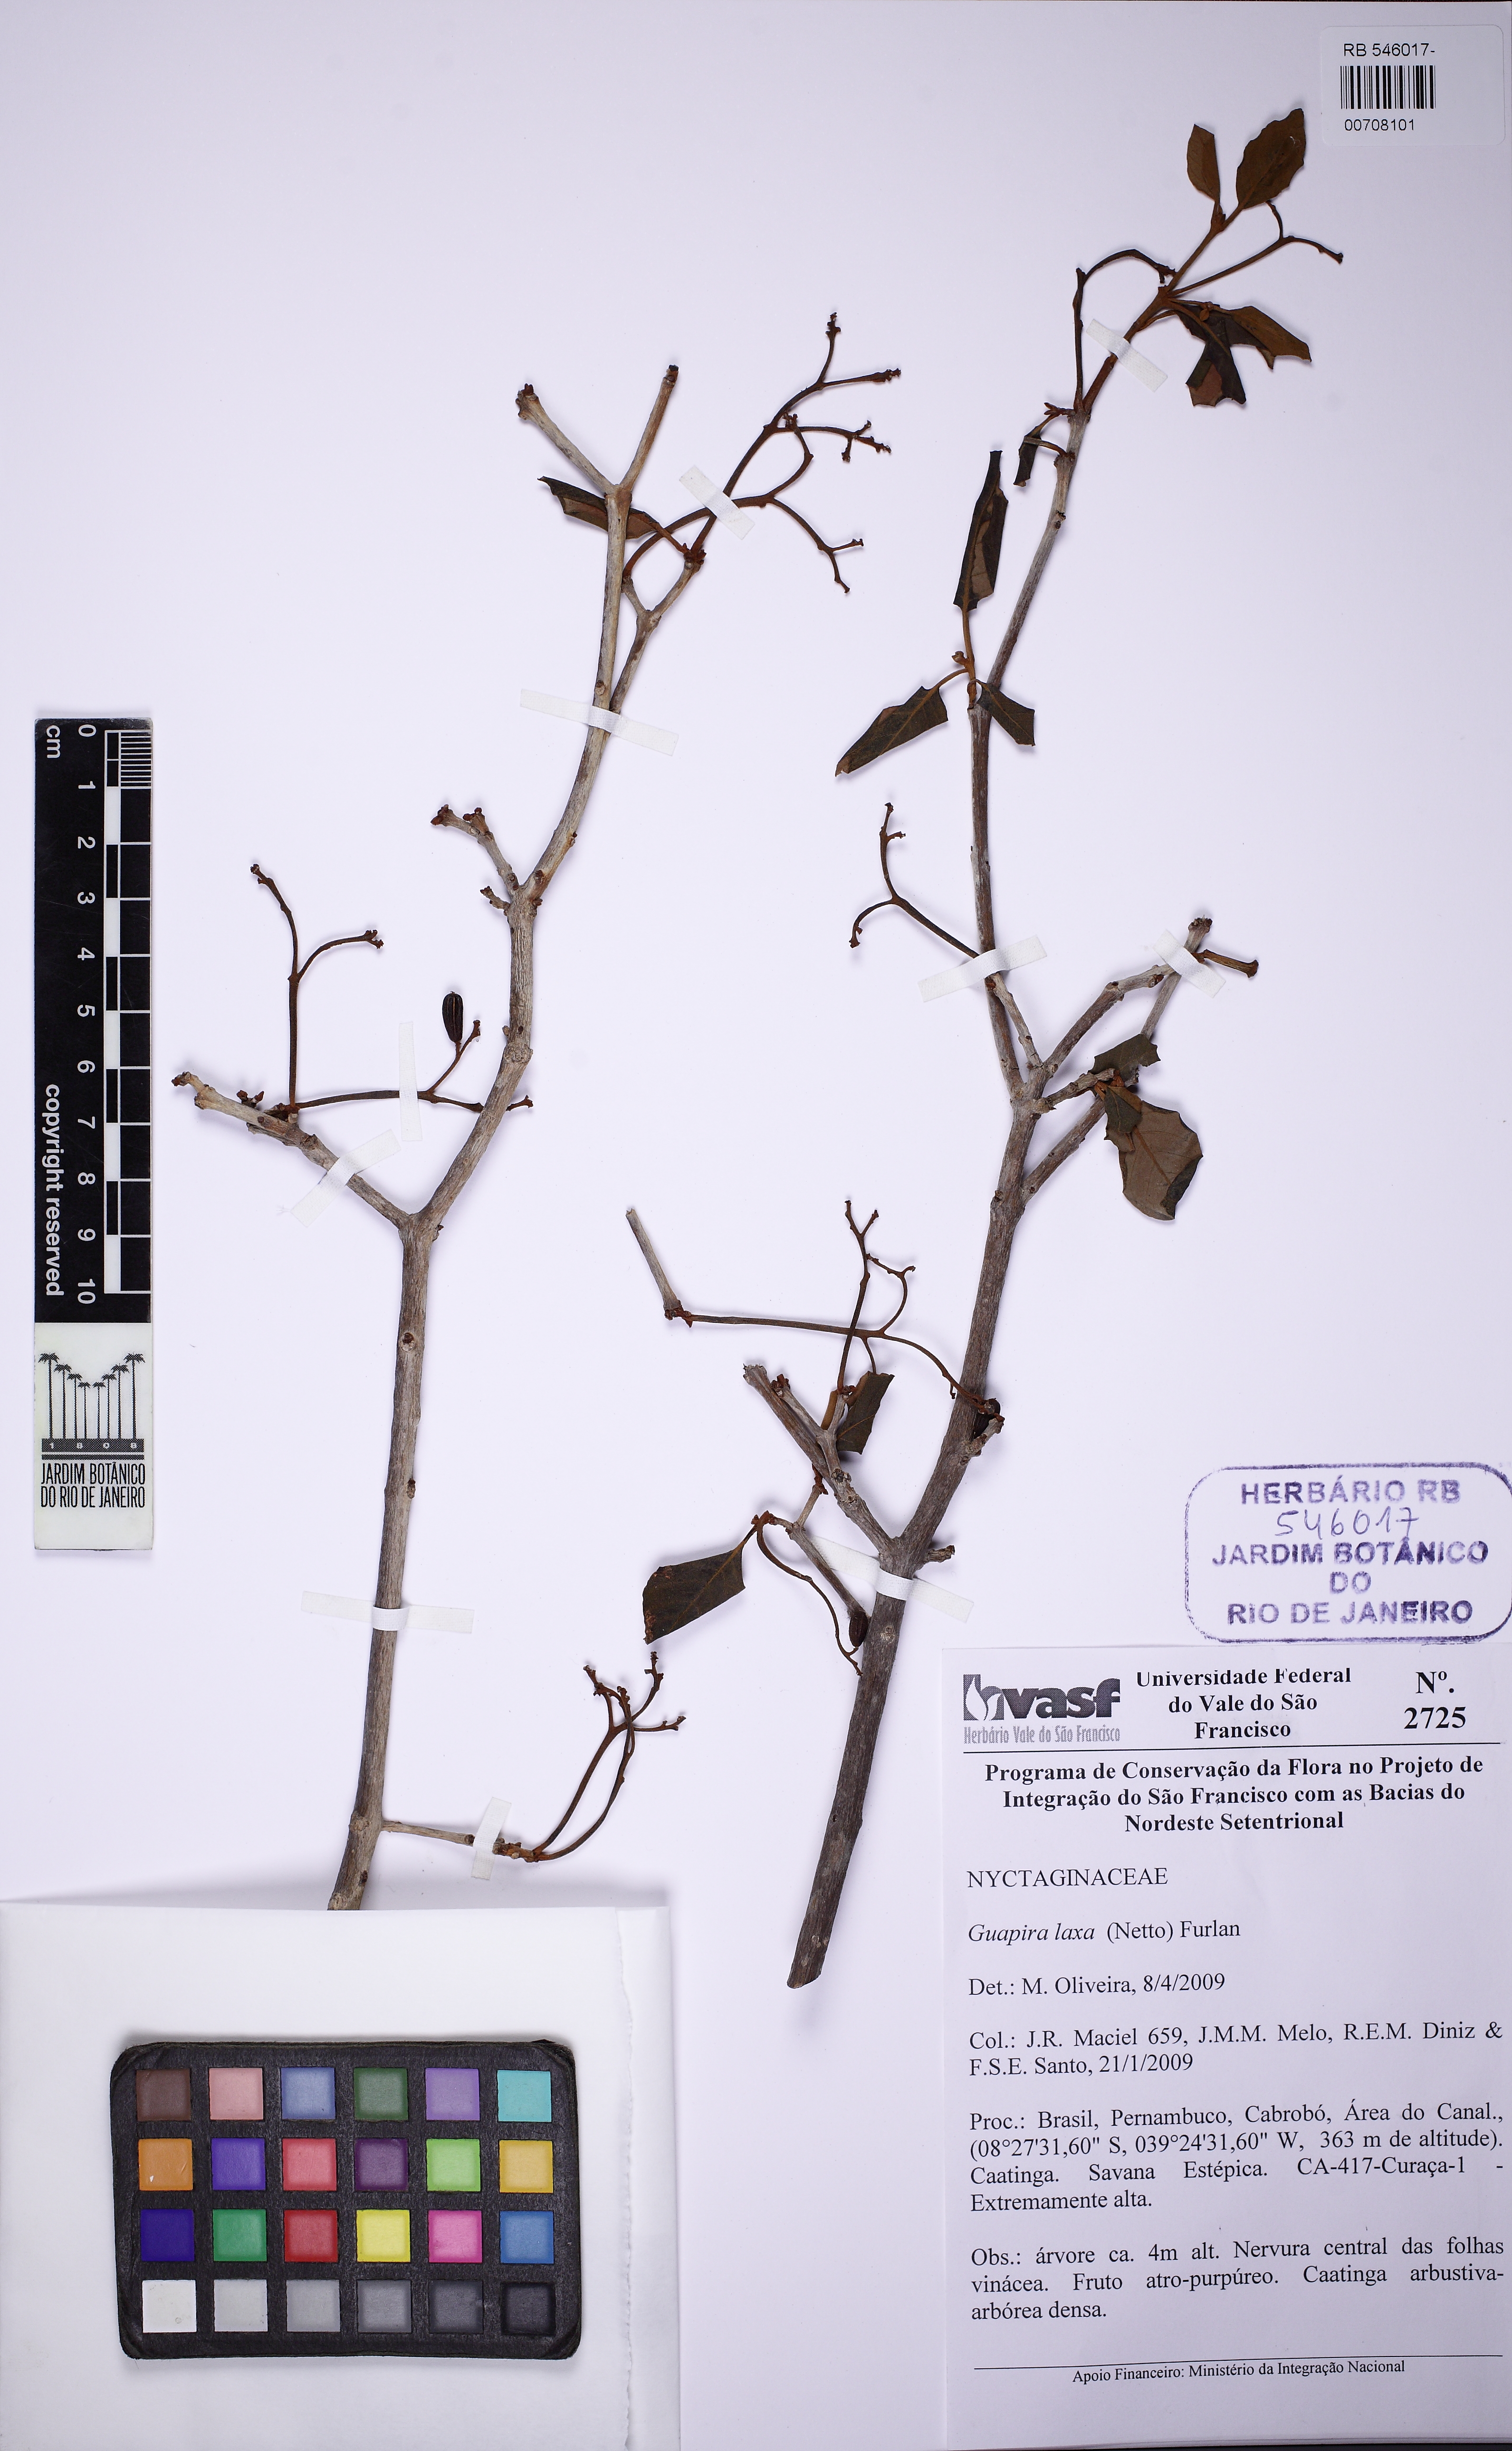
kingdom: Plantae
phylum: Tracheophyta
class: Magnoliopsida
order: Caryophyllales
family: Nyctaginaceae
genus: Guapira
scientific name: Guapira laxa
